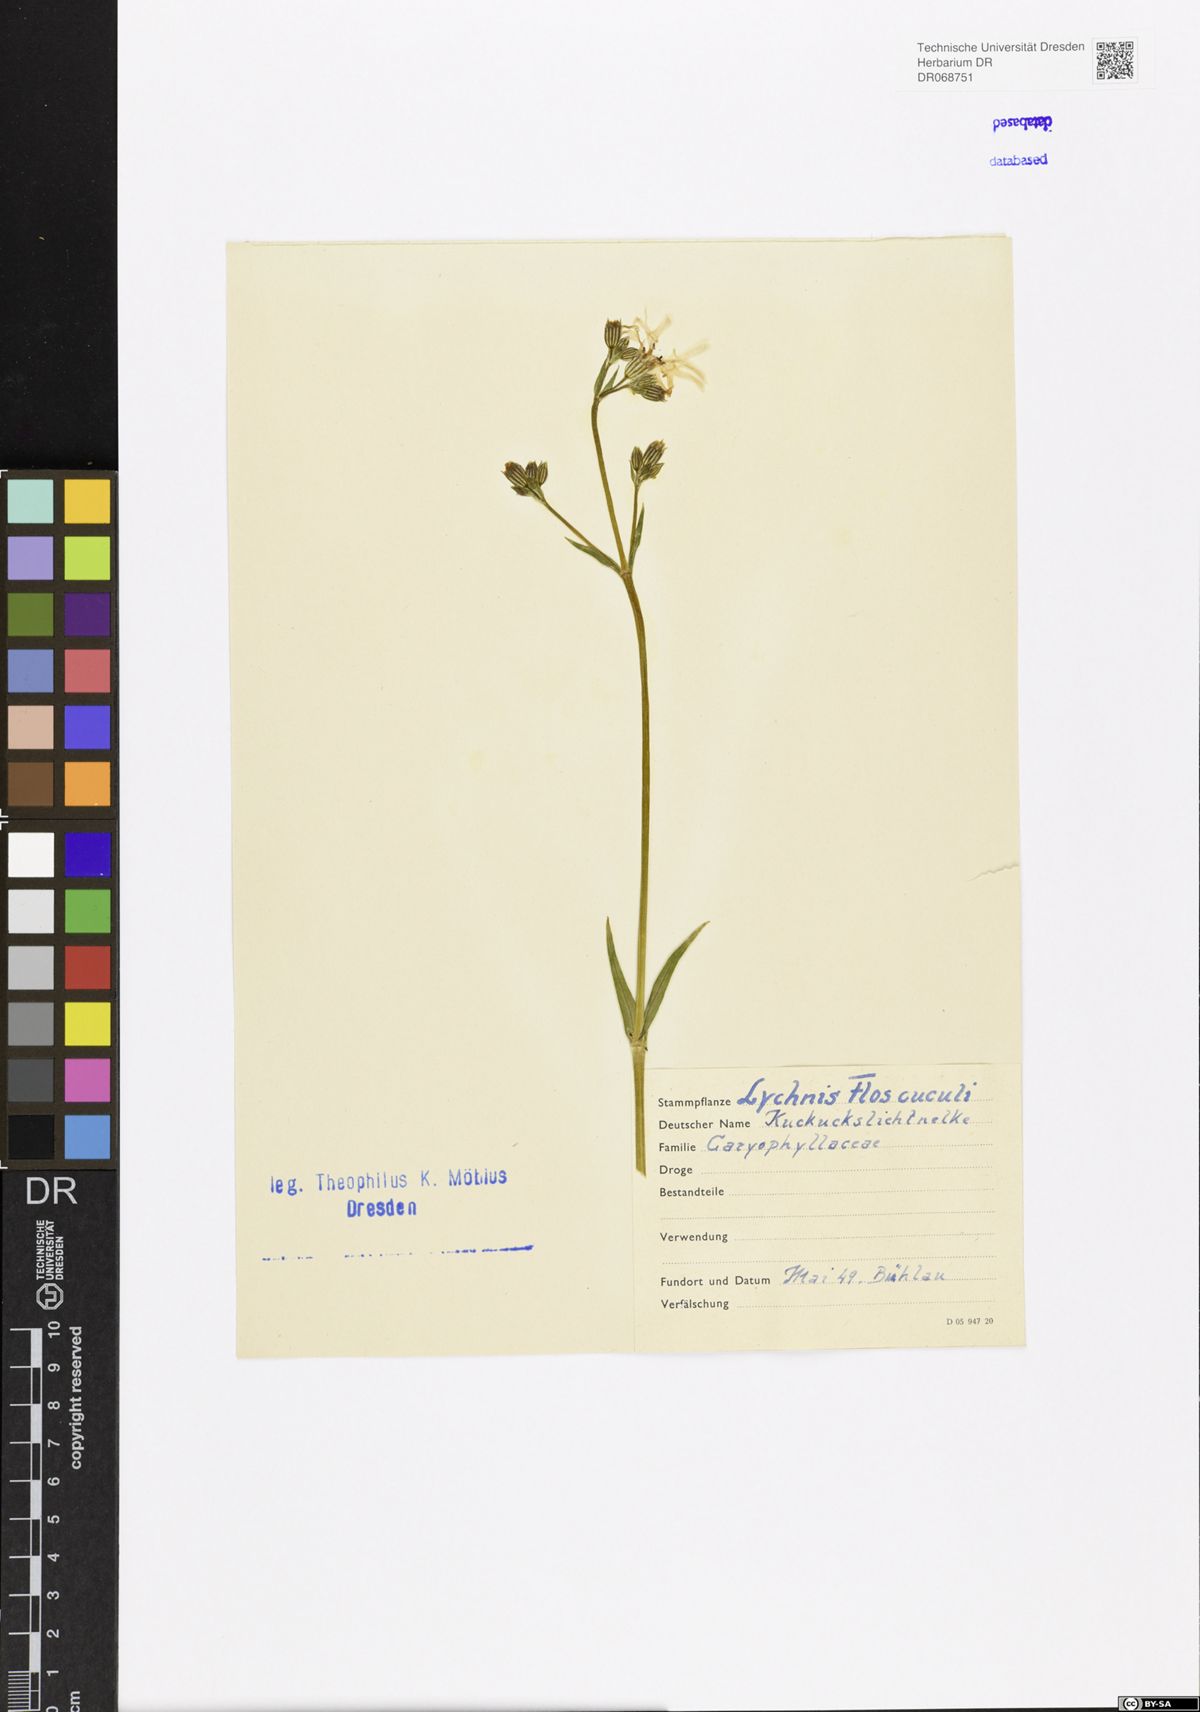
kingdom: Plantae
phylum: Tracheophyta
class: Magnoliopsida
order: Caryophyllales
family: Caryophyllaceae
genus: Silene
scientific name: Silene flos-cuculi
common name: Ragged-robin
